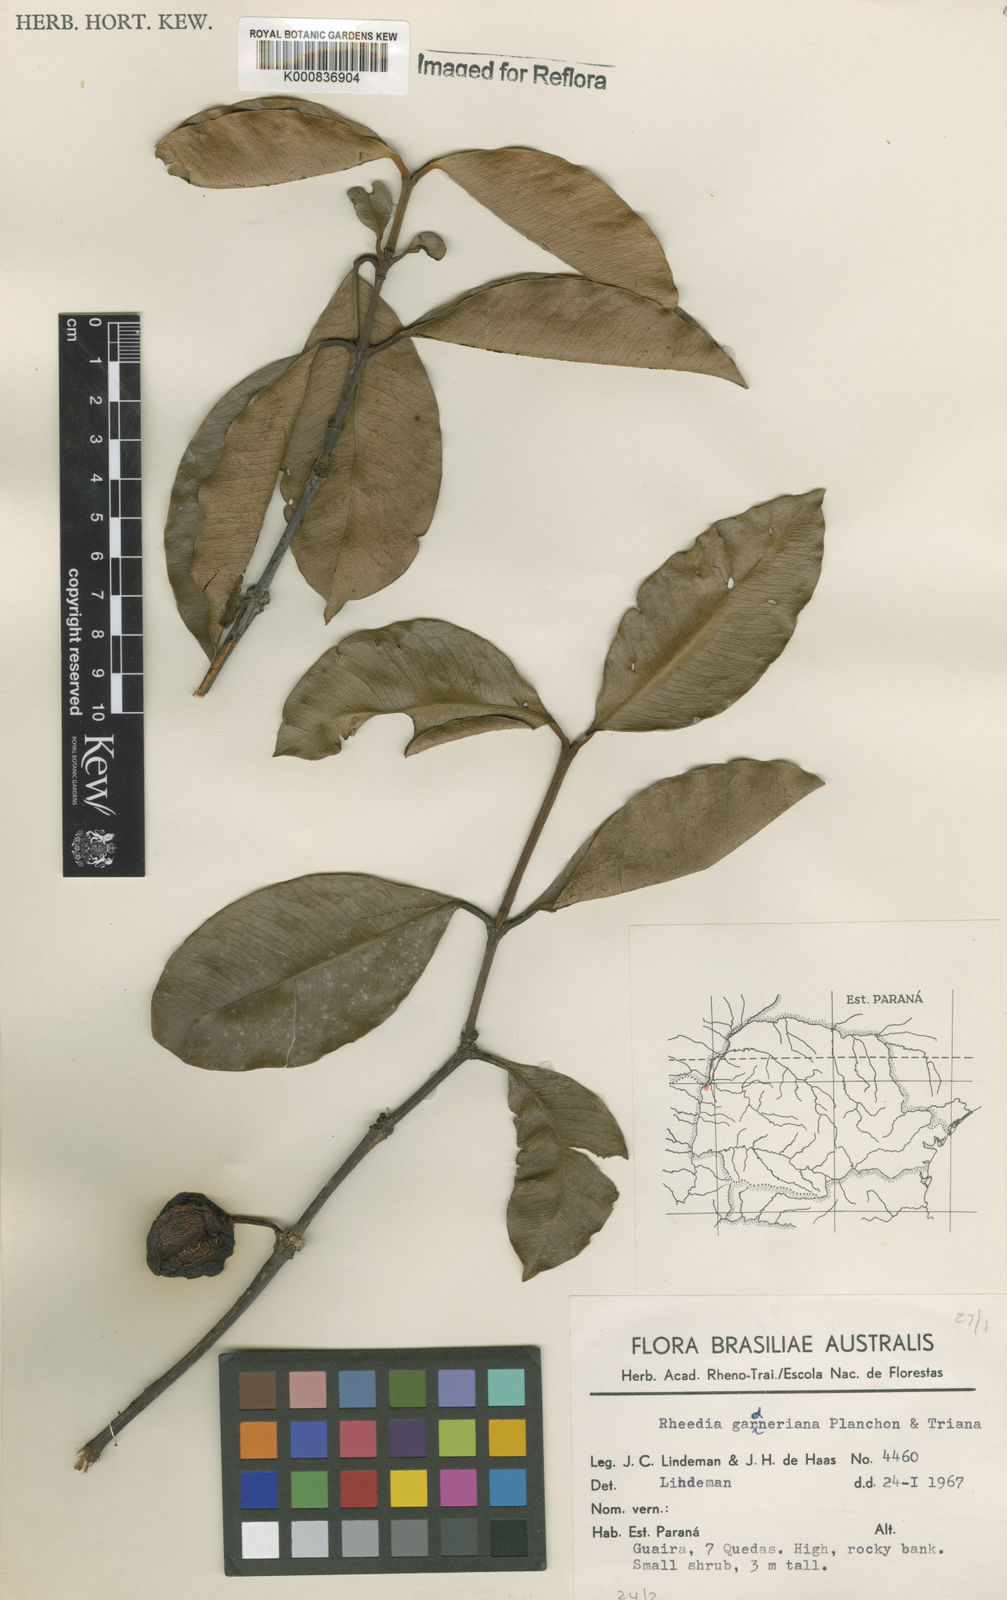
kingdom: Plantae
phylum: Tracheophyta
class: Magnoliopsida
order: Malpighiales
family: Clusiaceae
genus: Garcinia
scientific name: Garcinia gardneriana
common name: Achacha
